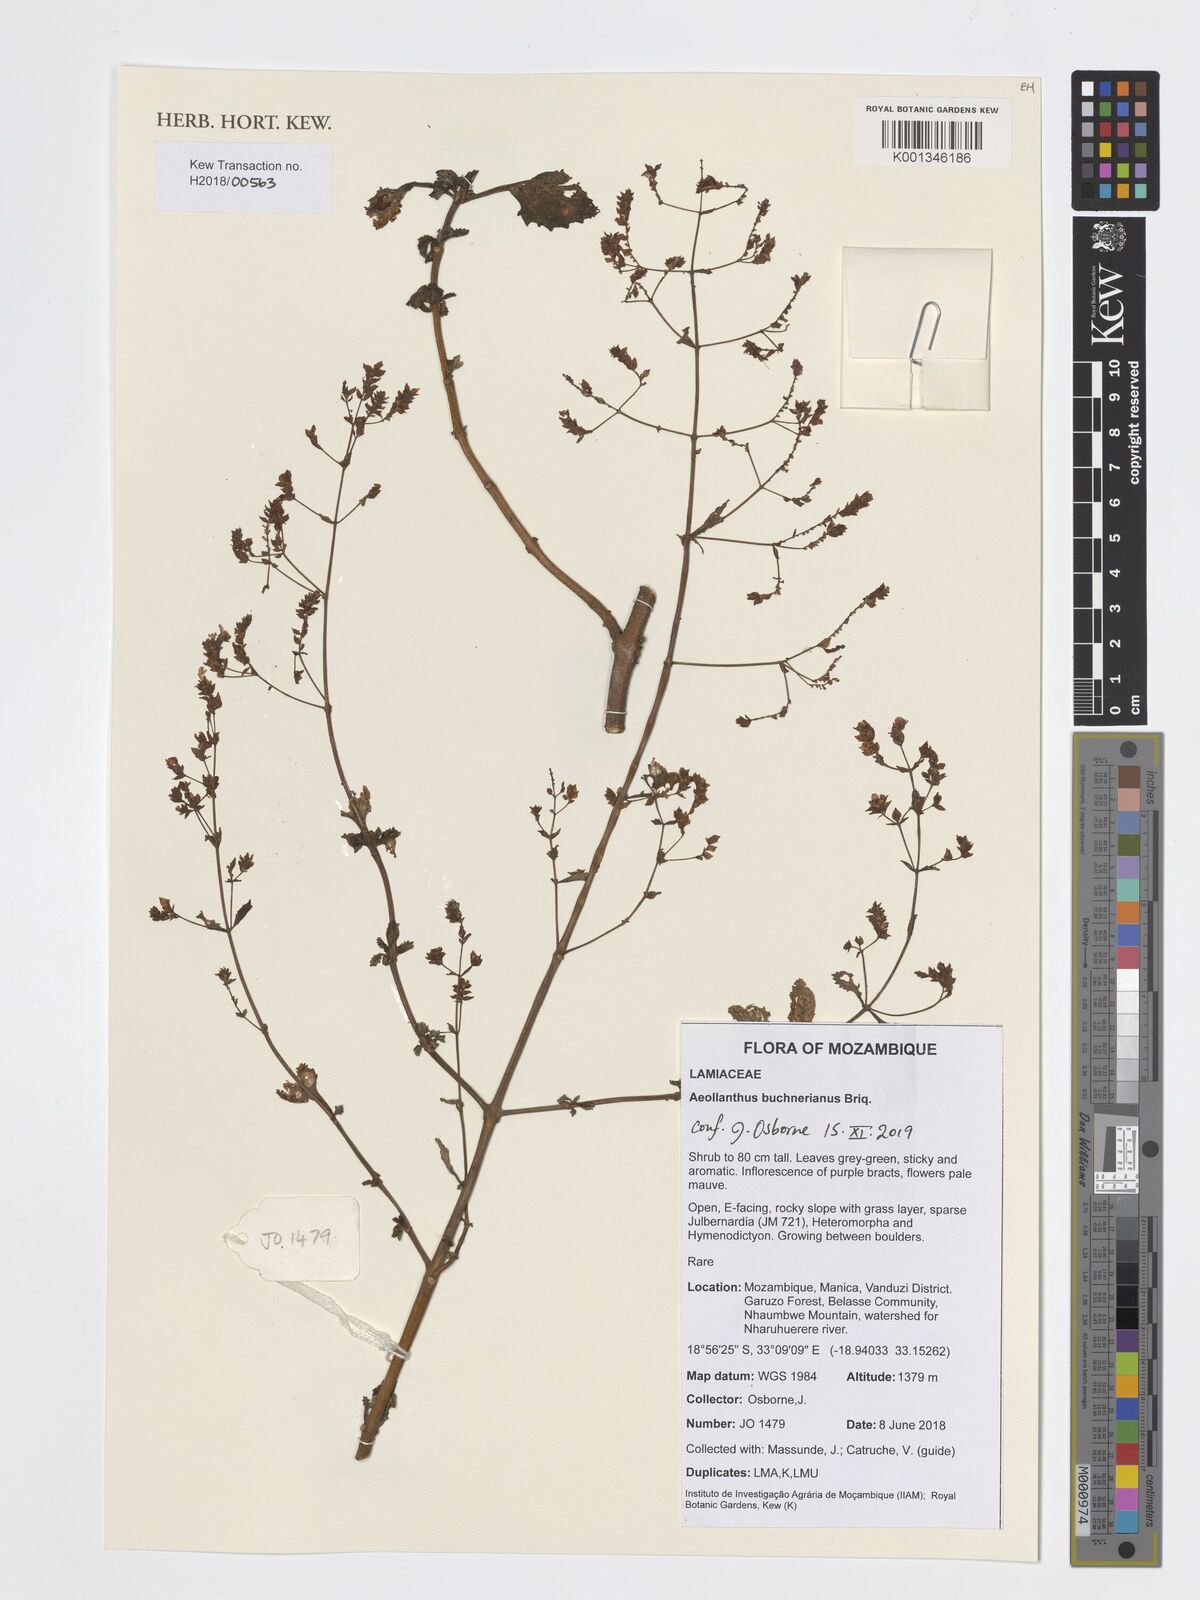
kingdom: Plantae
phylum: Tracheophyta
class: Magnoliopsida
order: Lamiales
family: Lamiaceae
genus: Aeollanthus
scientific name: Aeollanthus buchnerianus
